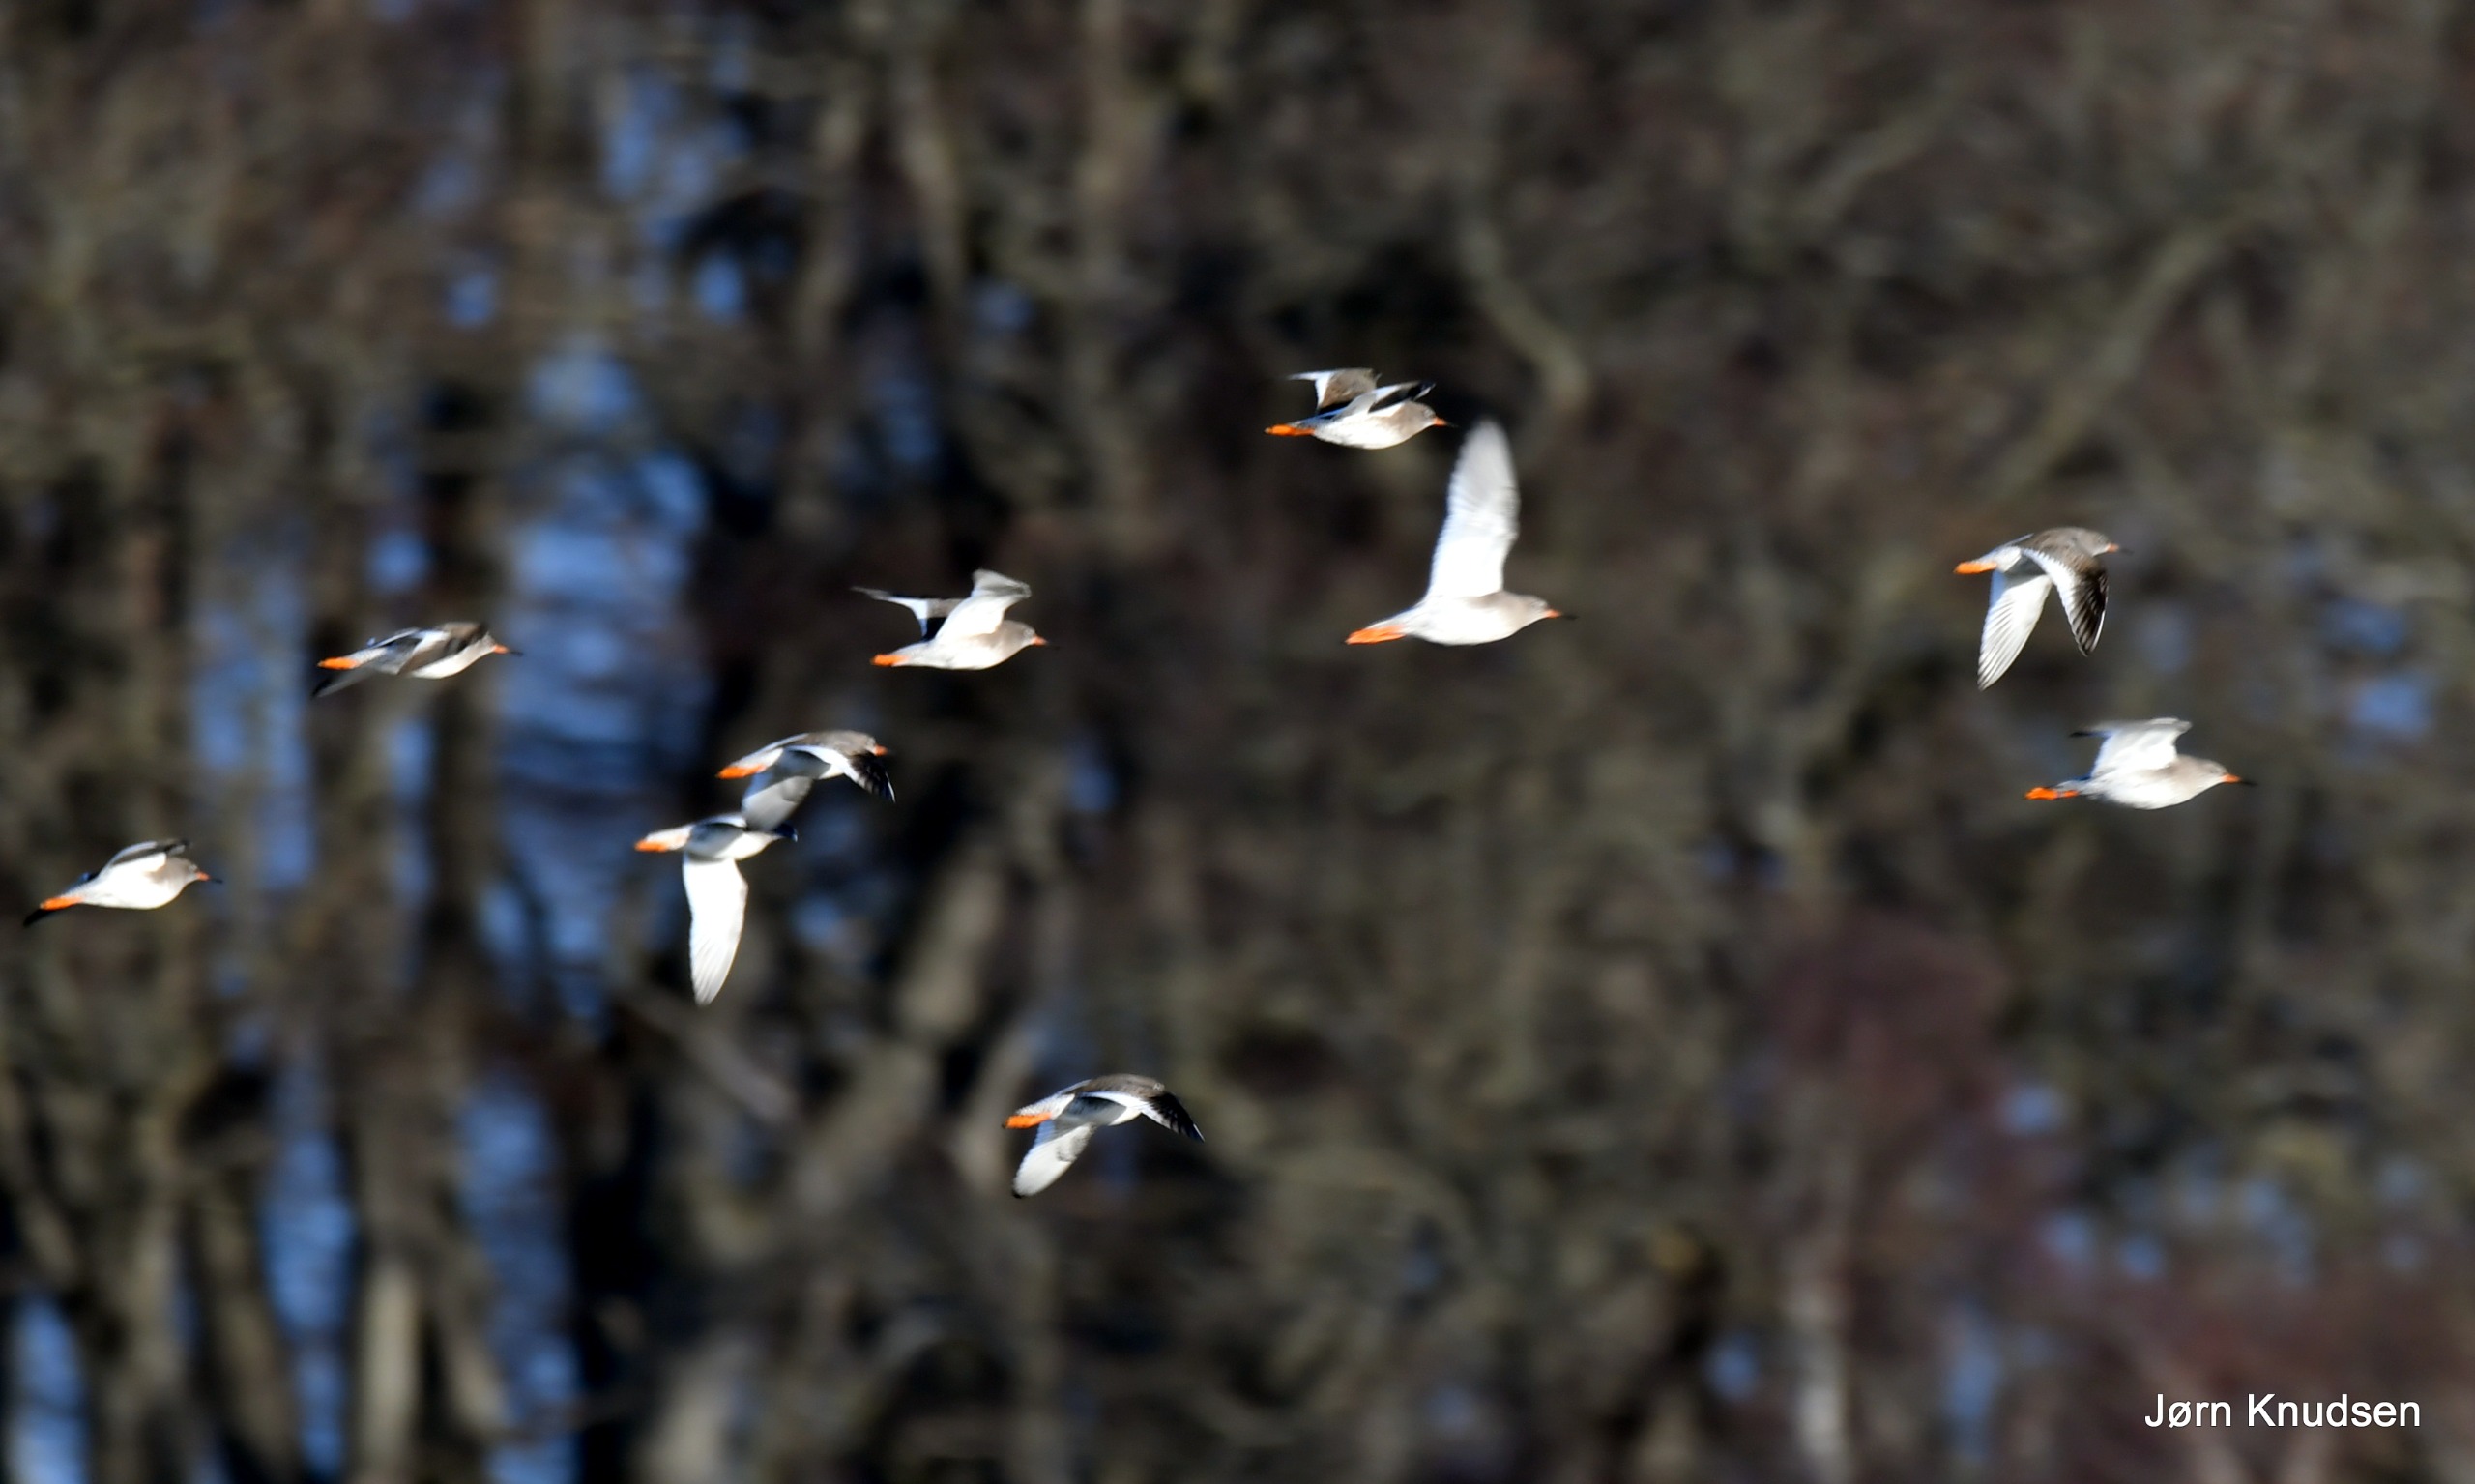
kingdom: Animalia
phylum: Chordata
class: Aves
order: Charadriiformes
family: Scolopacidae
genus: Tringa
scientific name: Tringa totanus
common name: Rødben
